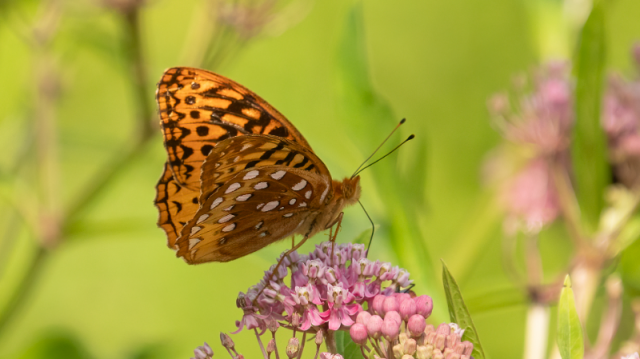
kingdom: Animalia
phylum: Arthropoda
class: Insecta
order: Lepidoptera
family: Nymphalidae
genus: Speyeria
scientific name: Speyeria cybele
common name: Great Spangled Fritillary
